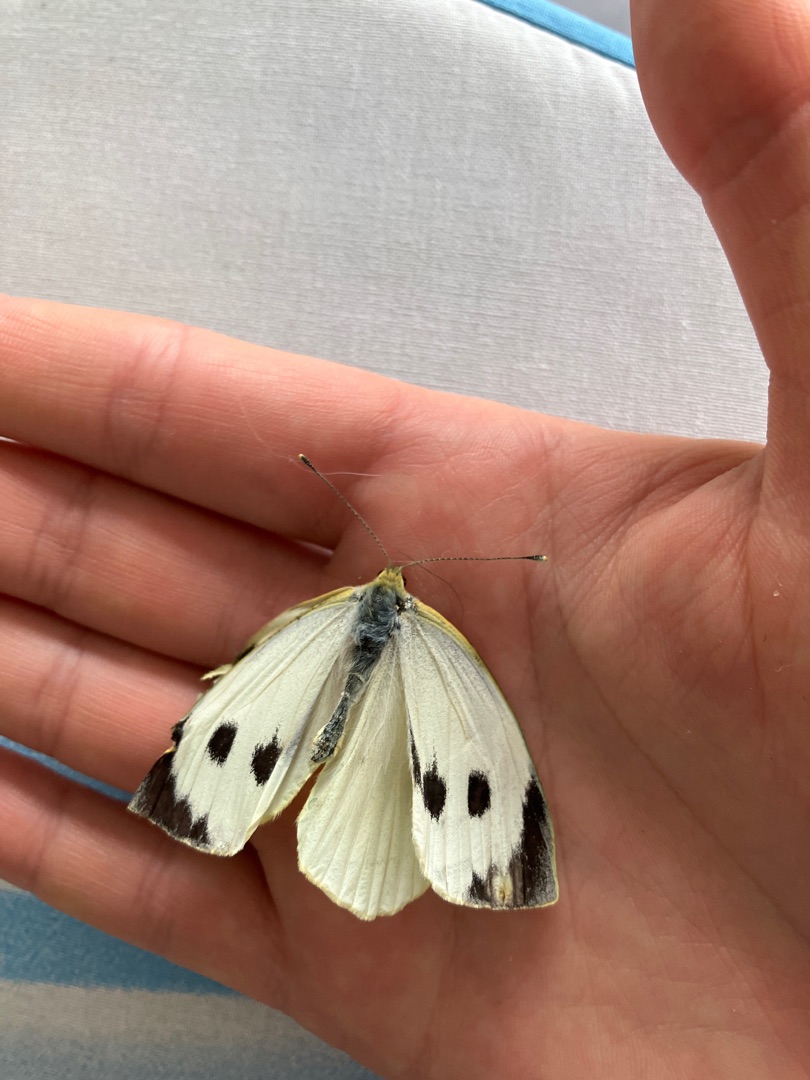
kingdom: Animalia
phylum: Arthropoda
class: Insecta
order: Lepidoptera
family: Pieridae
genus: Pieris
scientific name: Pieris brassicae
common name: Stor kålsommerfugl
